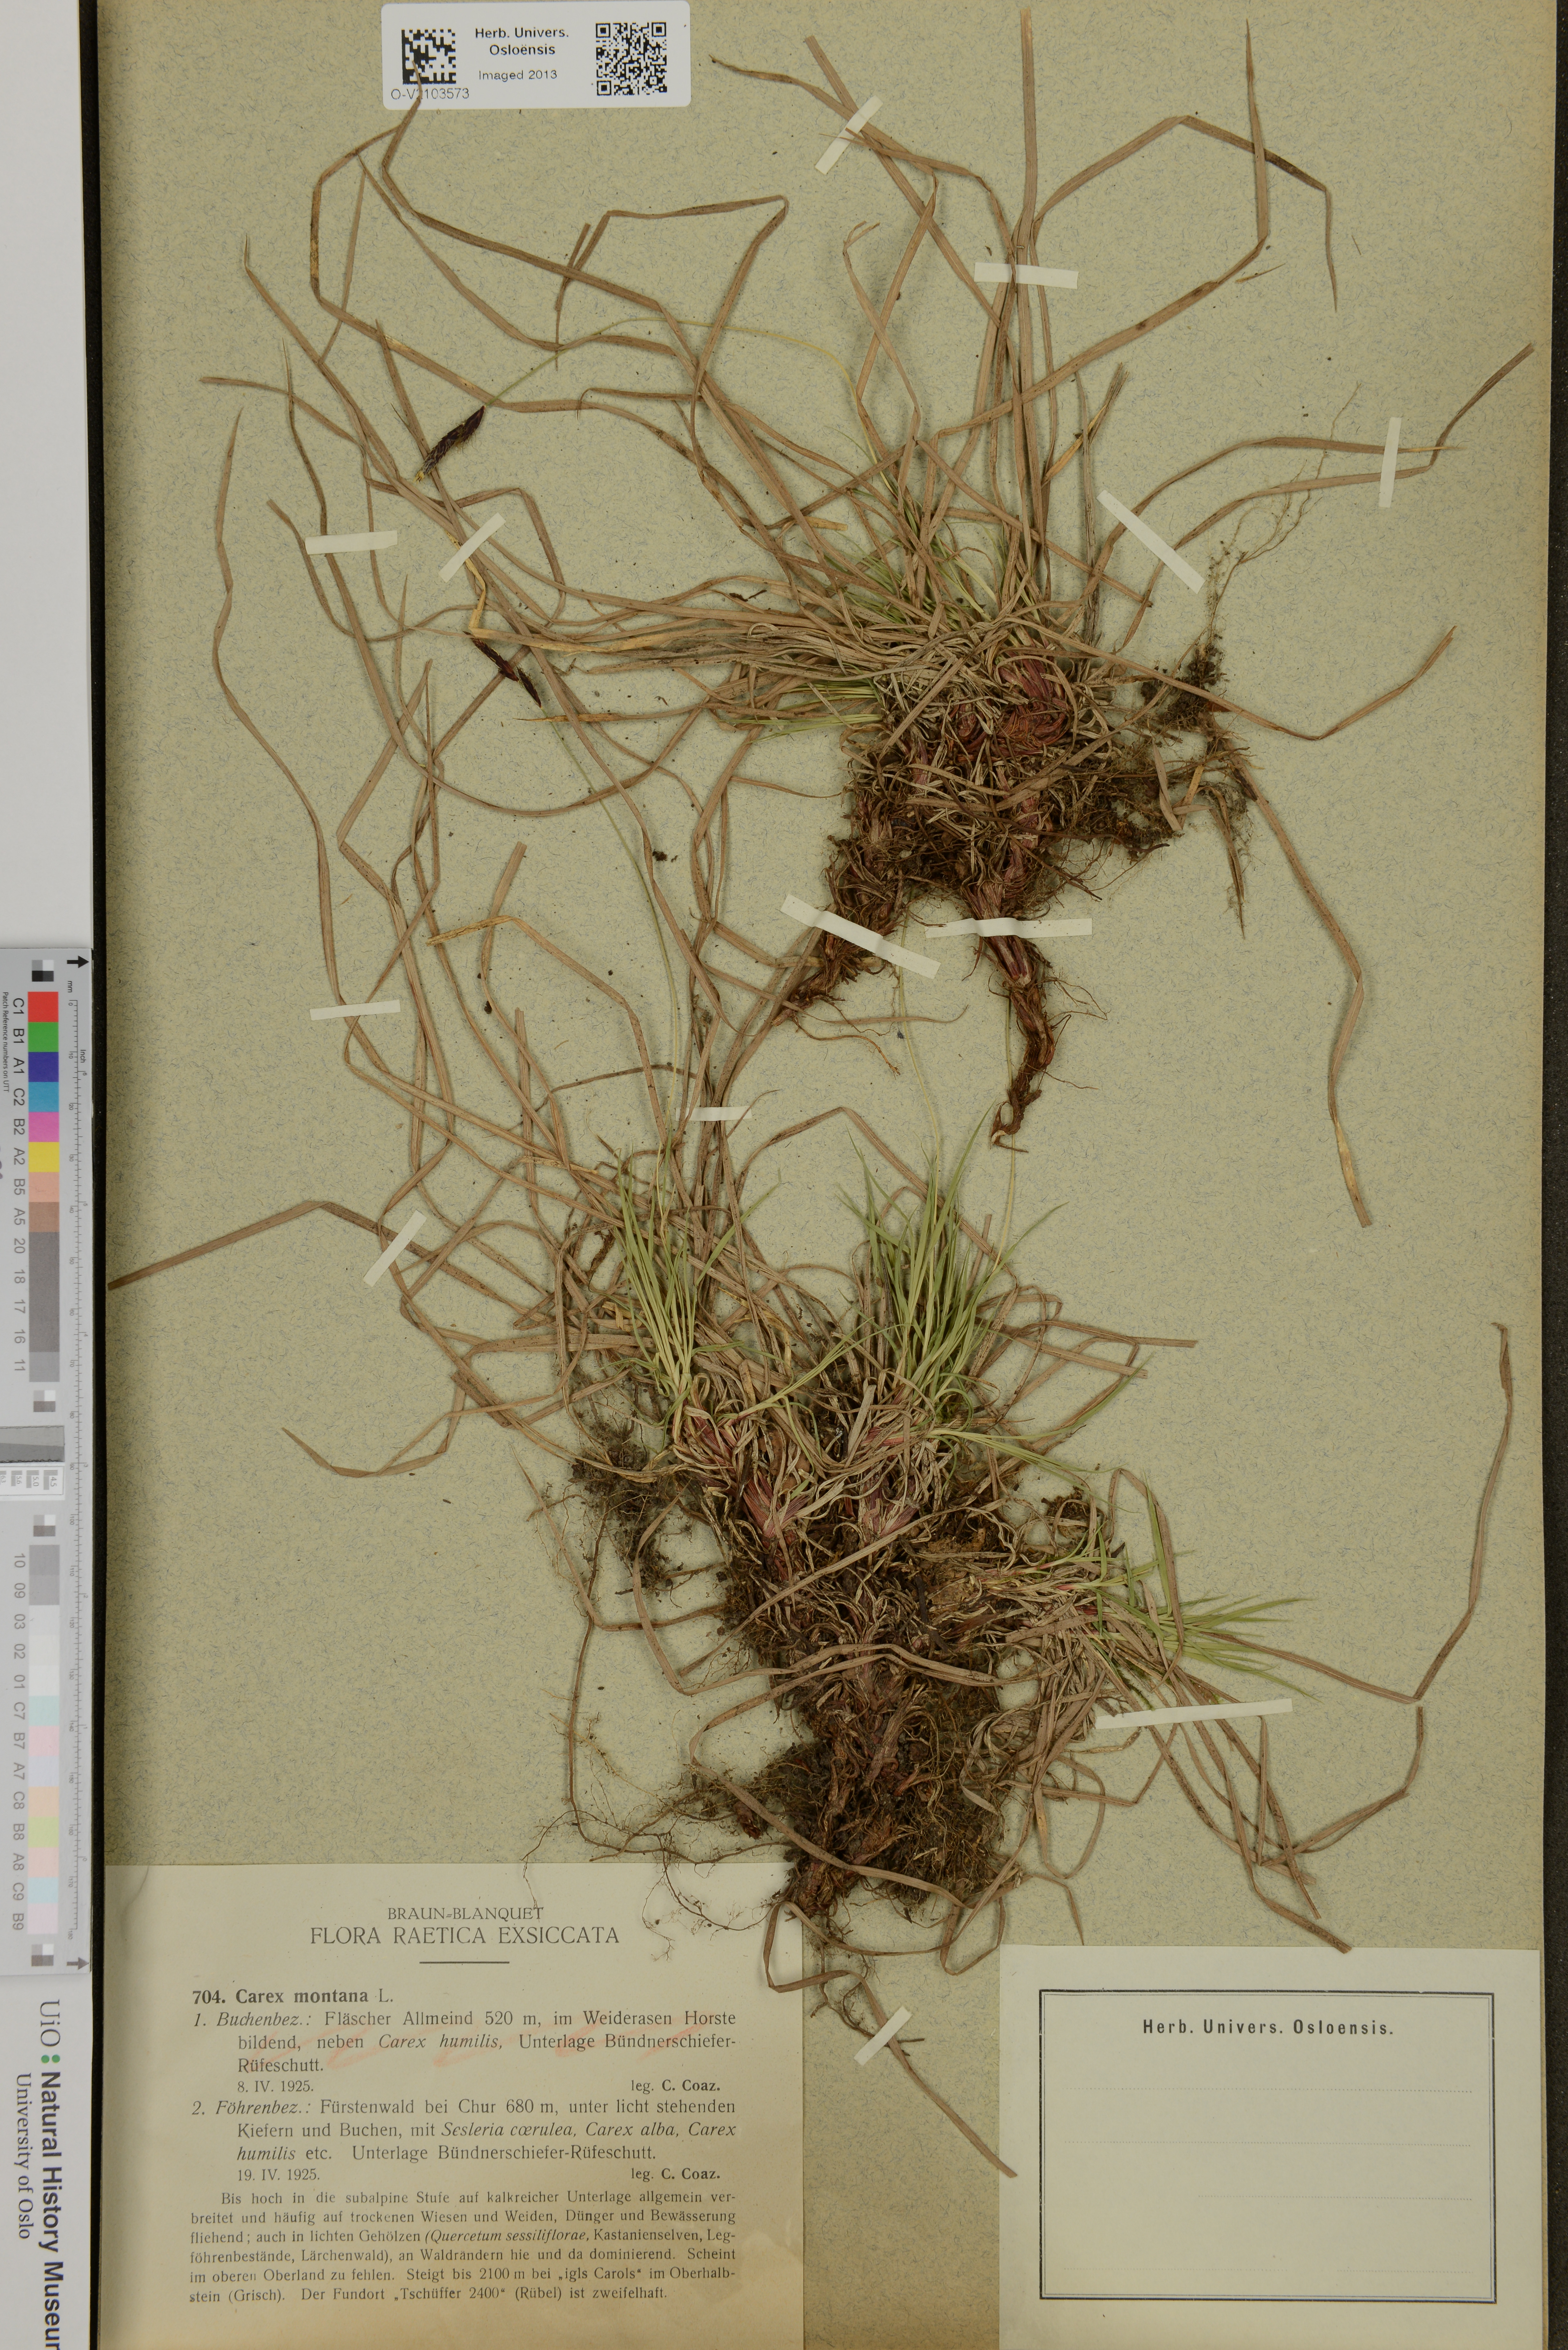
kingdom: Plantae
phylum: Tracheophyta
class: Liliopsida
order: Poales
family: Cyperaceae
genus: Carex
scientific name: Carex montana
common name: Soft-leaved sedge
